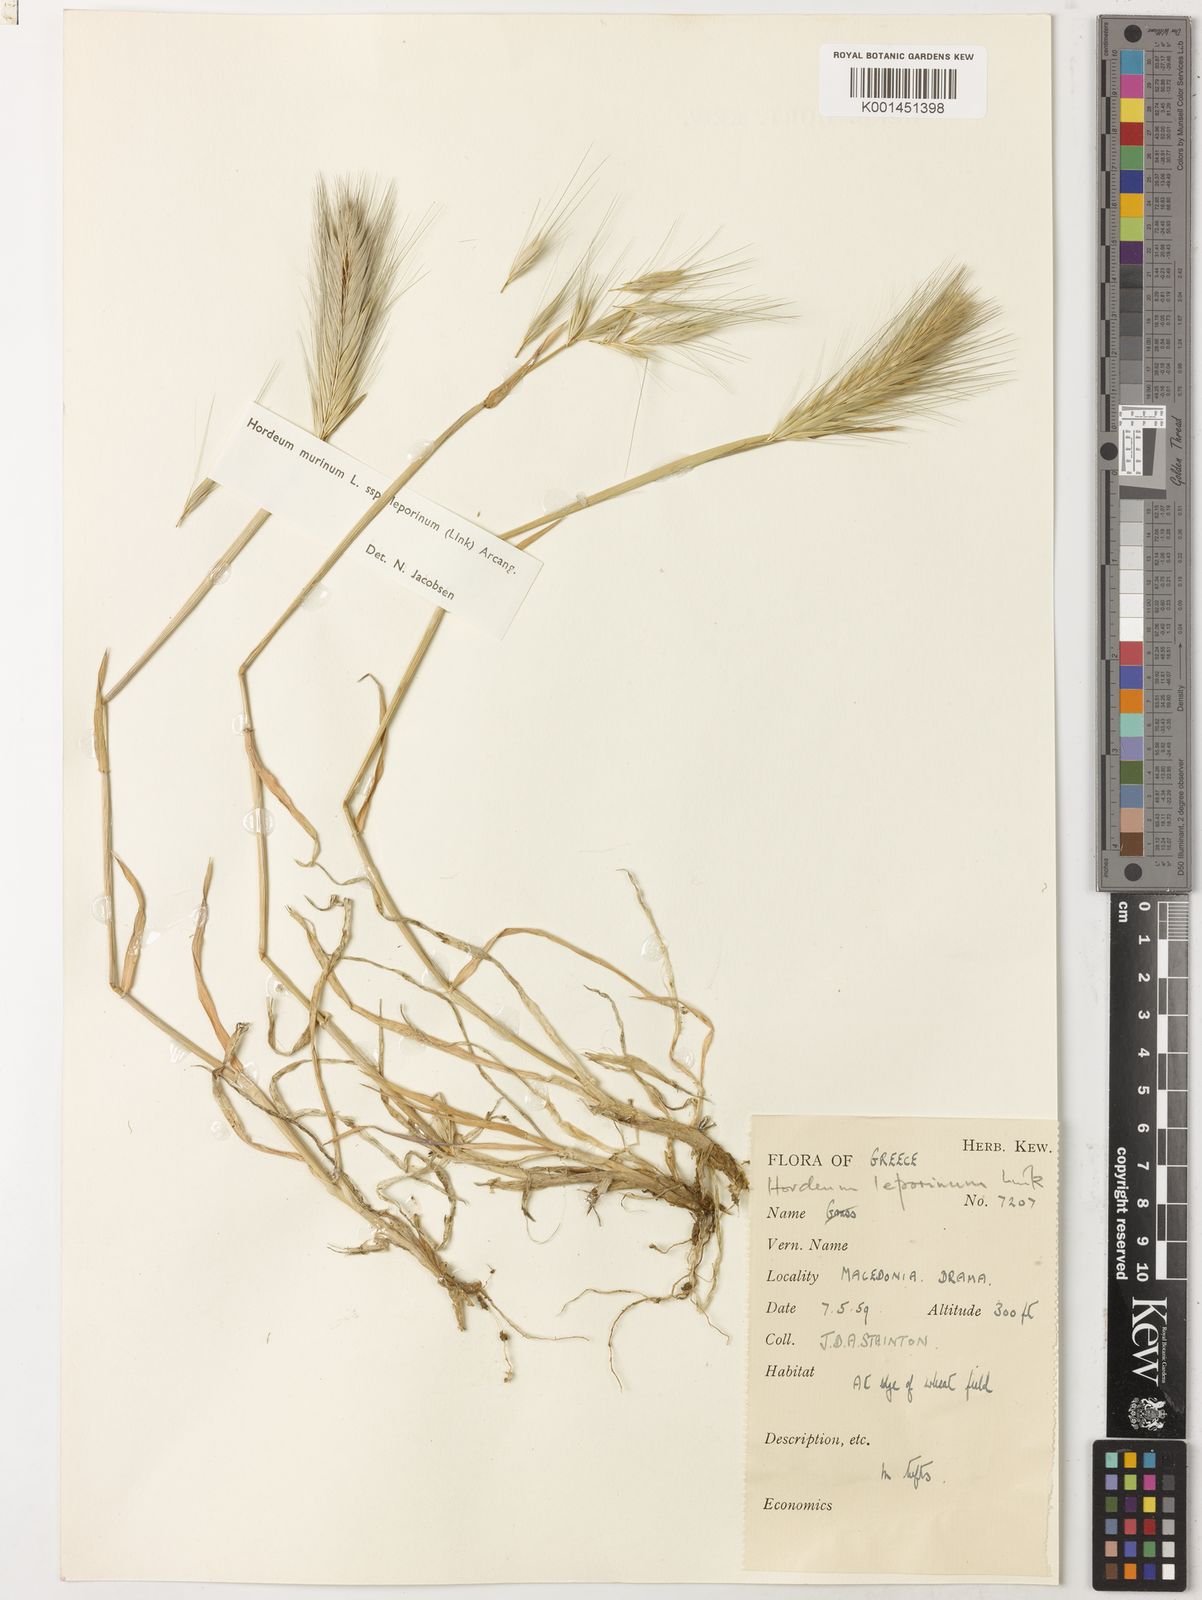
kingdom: Plantae
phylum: Tracheophyta
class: Liliopsida
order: Poales
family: Poaceae
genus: Hordeum
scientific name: Hordeum murinum
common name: Wall barley
